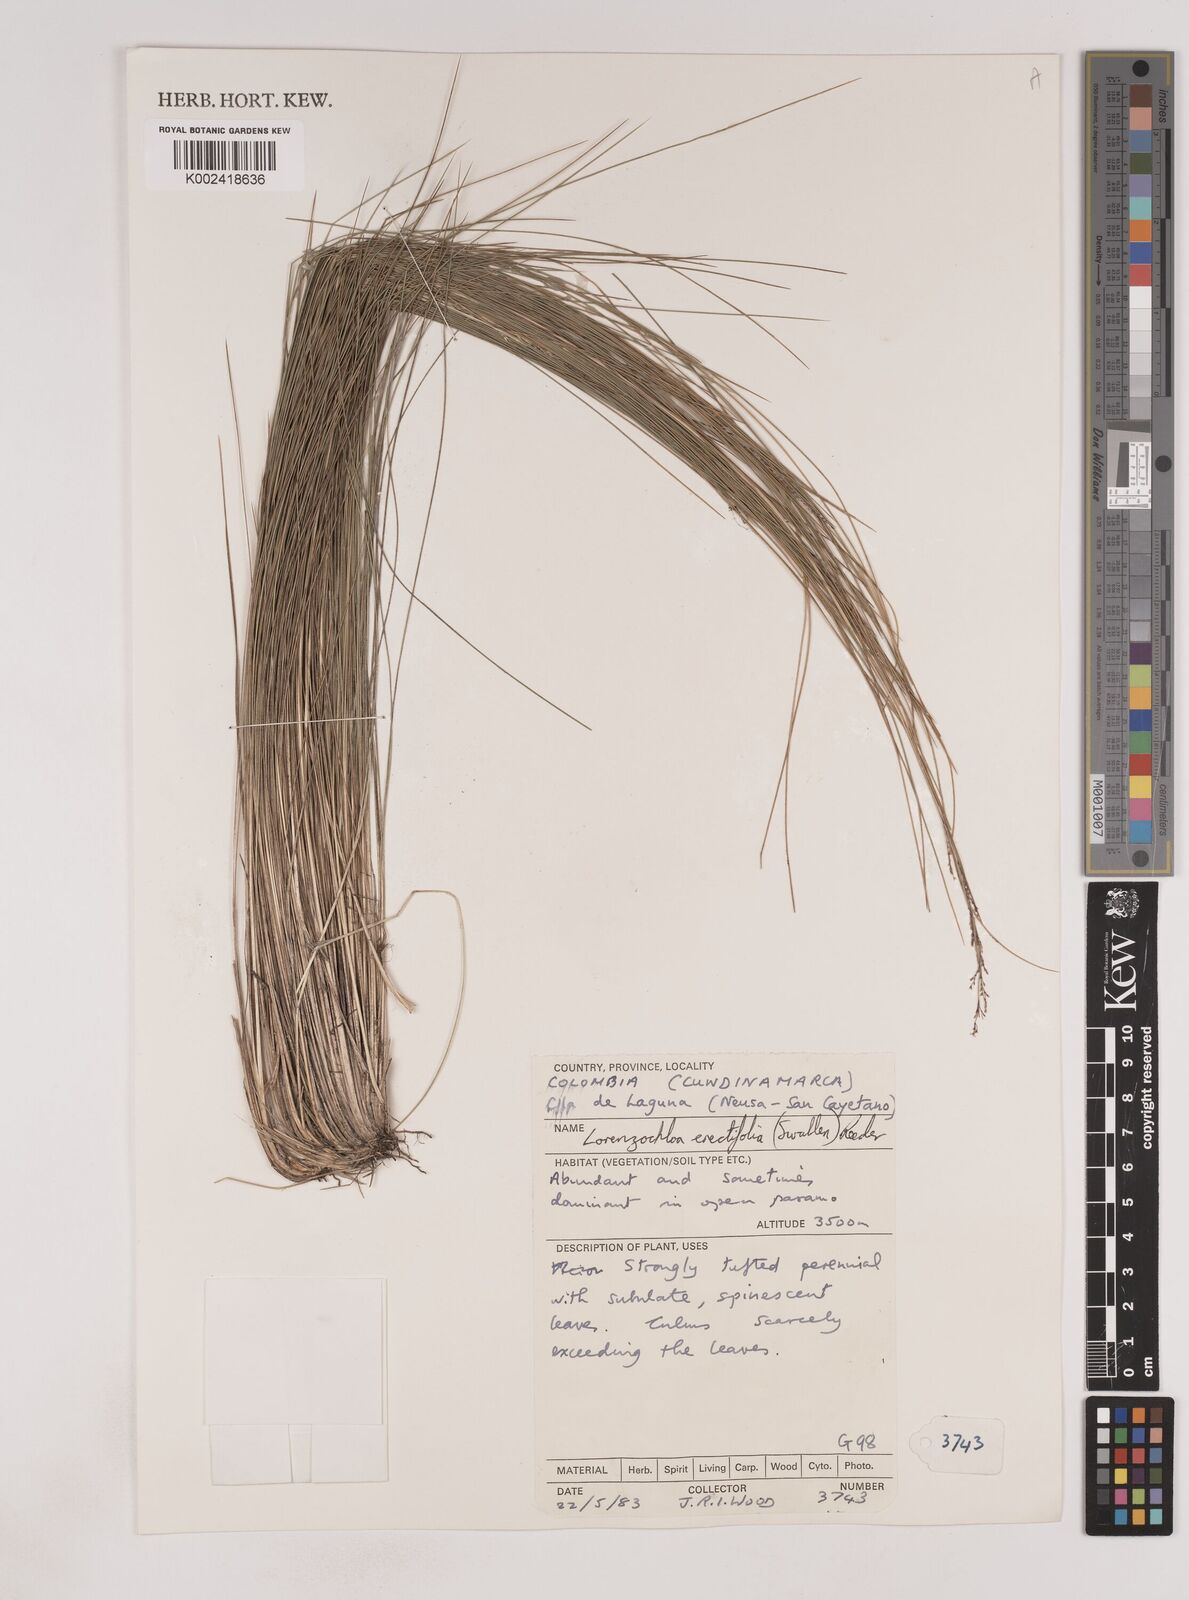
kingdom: Plantae
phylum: Tracheophyta
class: Liliopsida
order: Poales
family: Poaceae
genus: Lorenzochloa
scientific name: Lorenzochloa erectifolia
